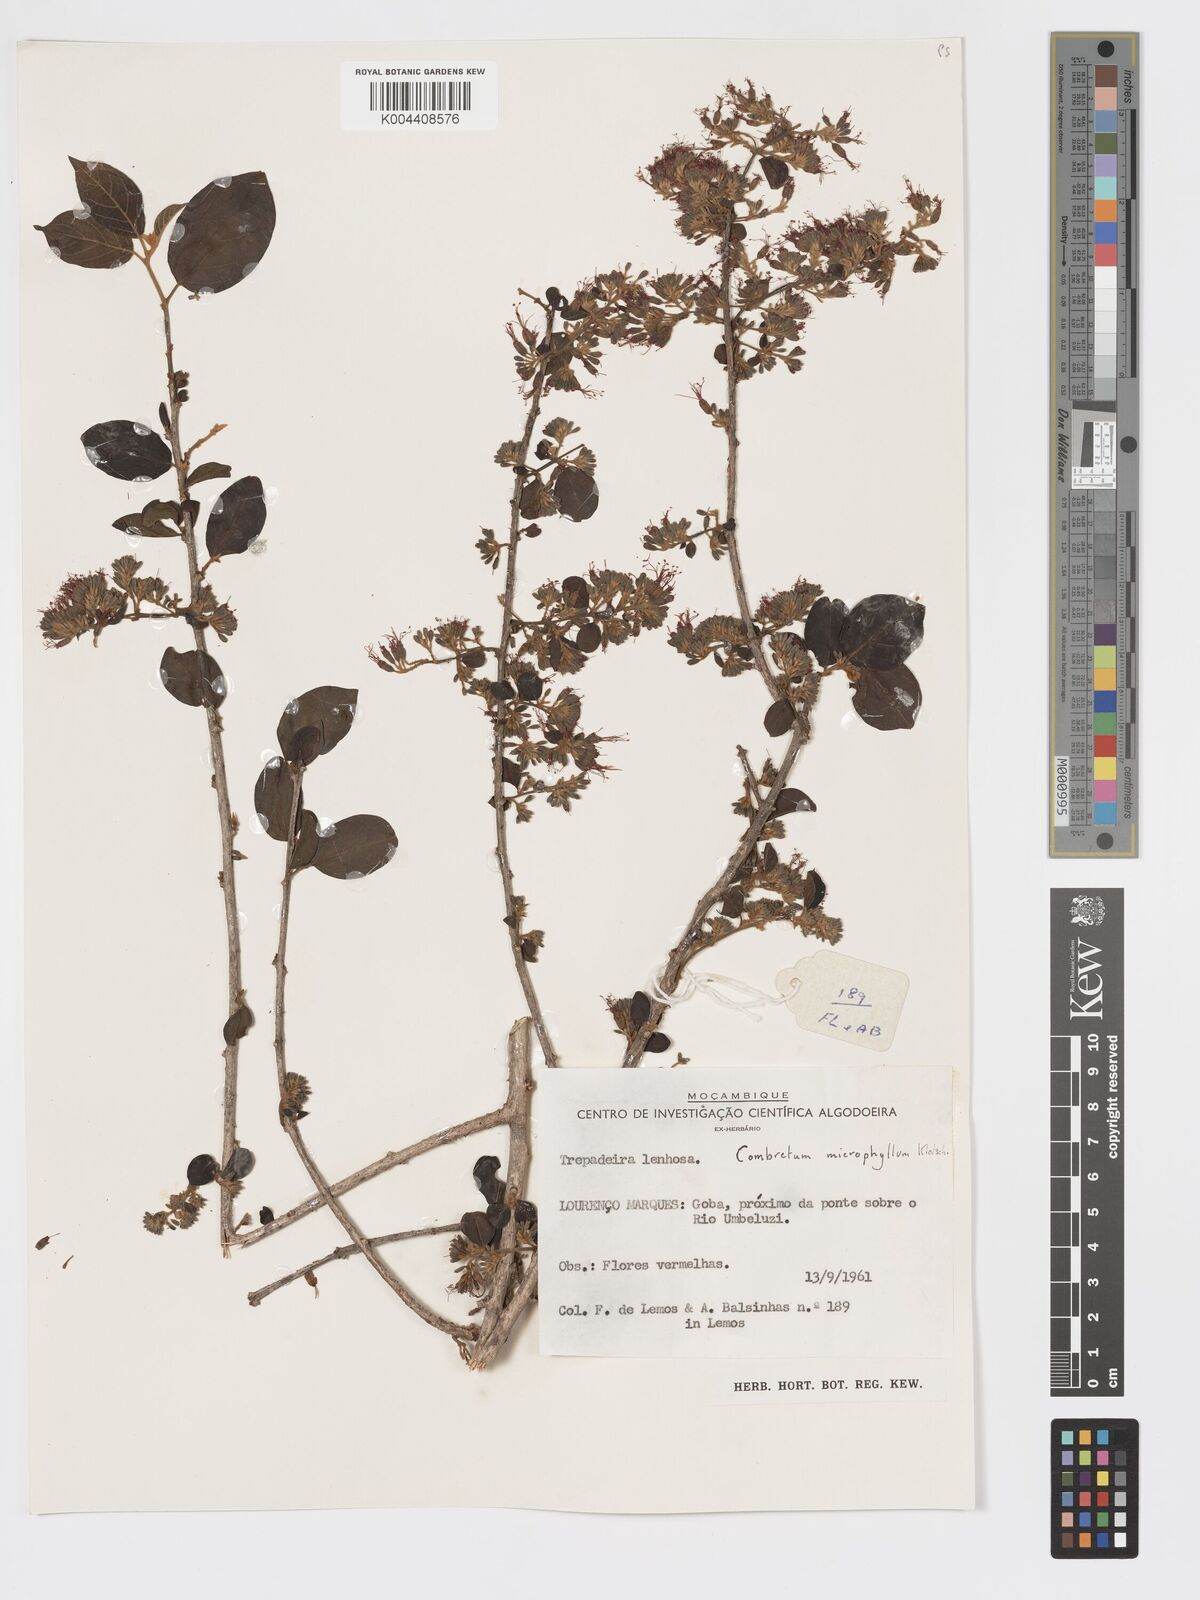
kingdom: Plantae
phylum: Tracheophyta
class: Magnoliopsida
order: Myrtales
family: Combretaceae
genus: Combretum
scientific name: Combretum microphyllum
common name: Burningbush
